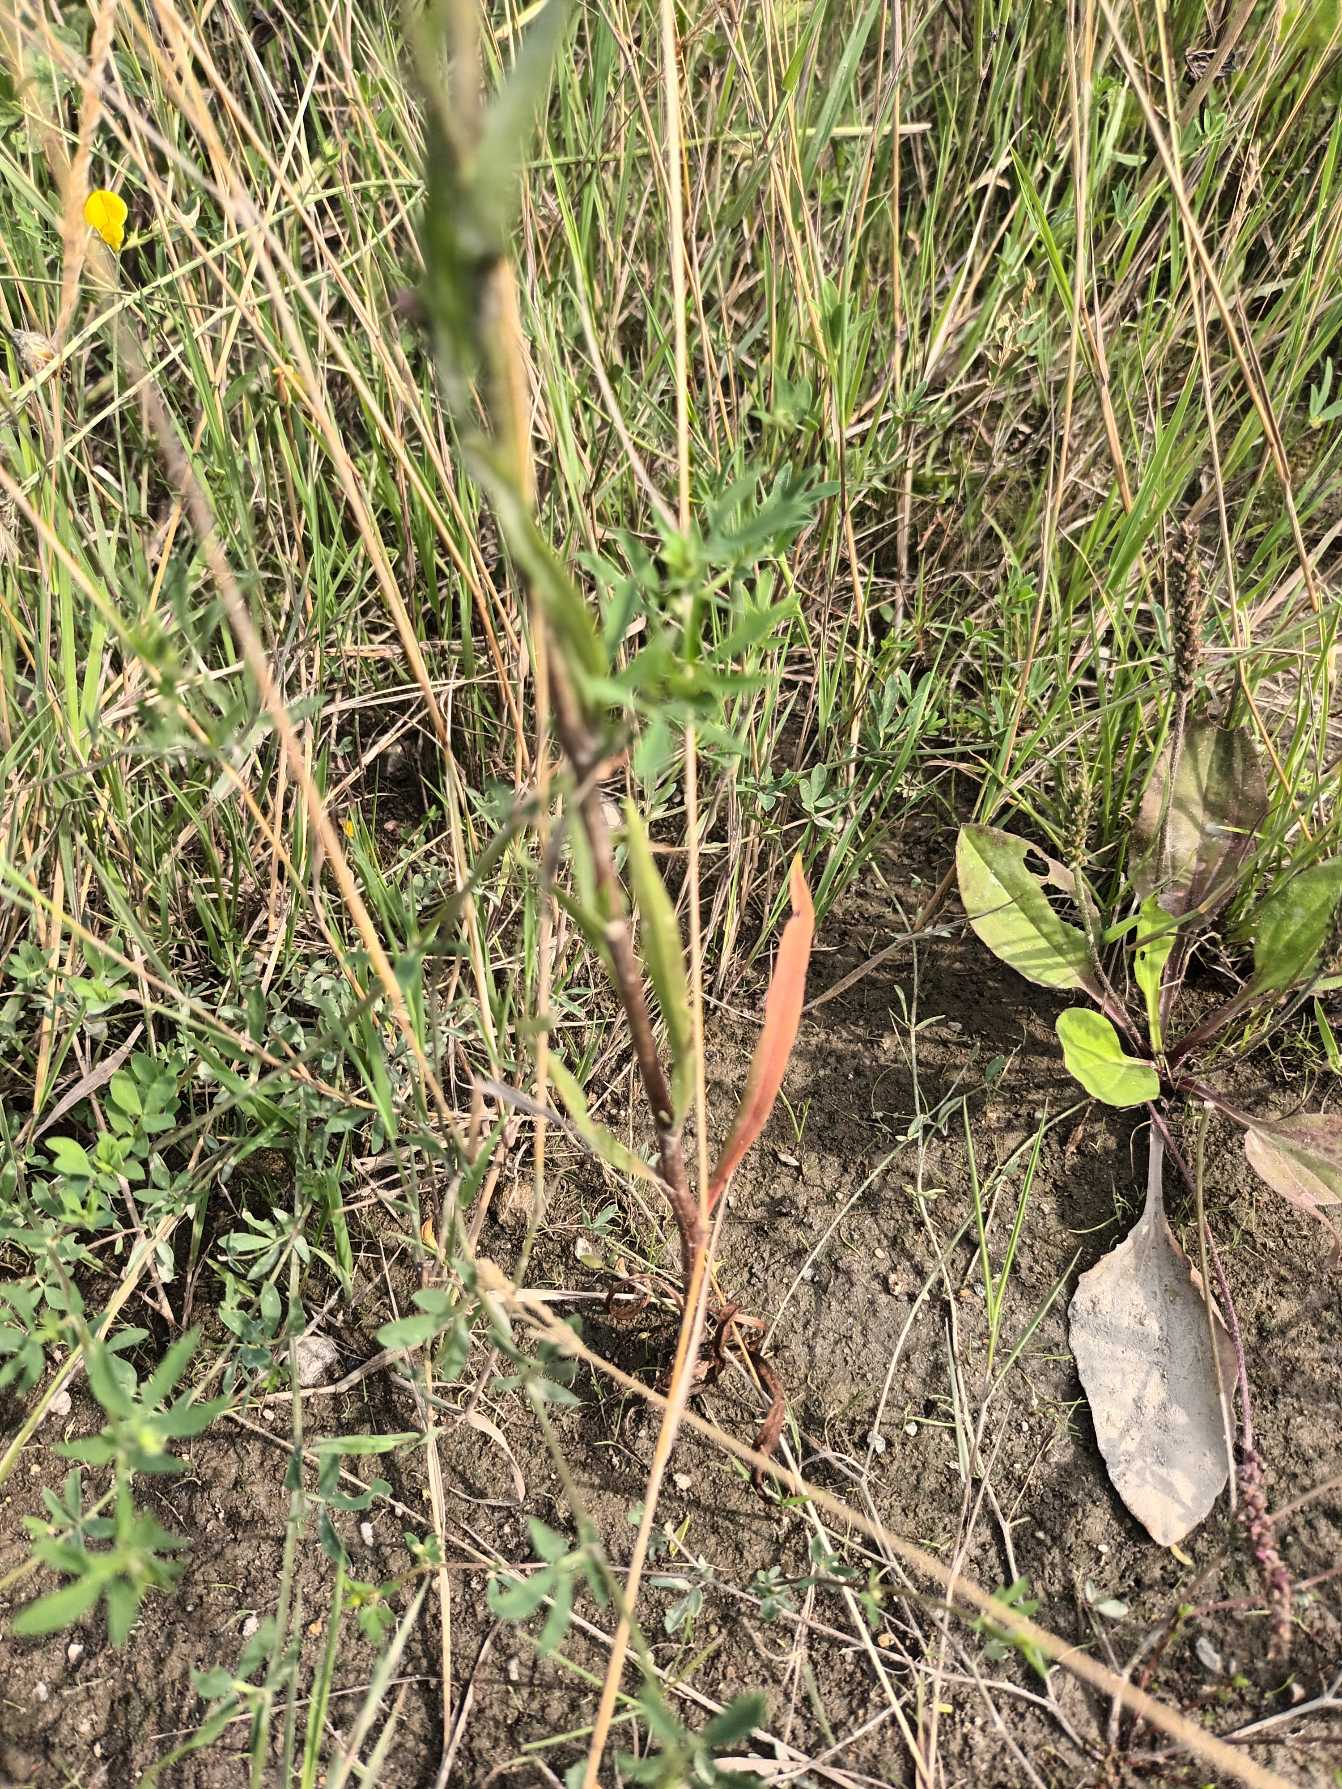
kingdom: Plantae
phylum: Tracheophyta
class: Magnoliopsida
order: Asterales
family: Asteraceae
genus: Tripolium
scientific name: Tripolium pannonicum
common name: Strandasters
